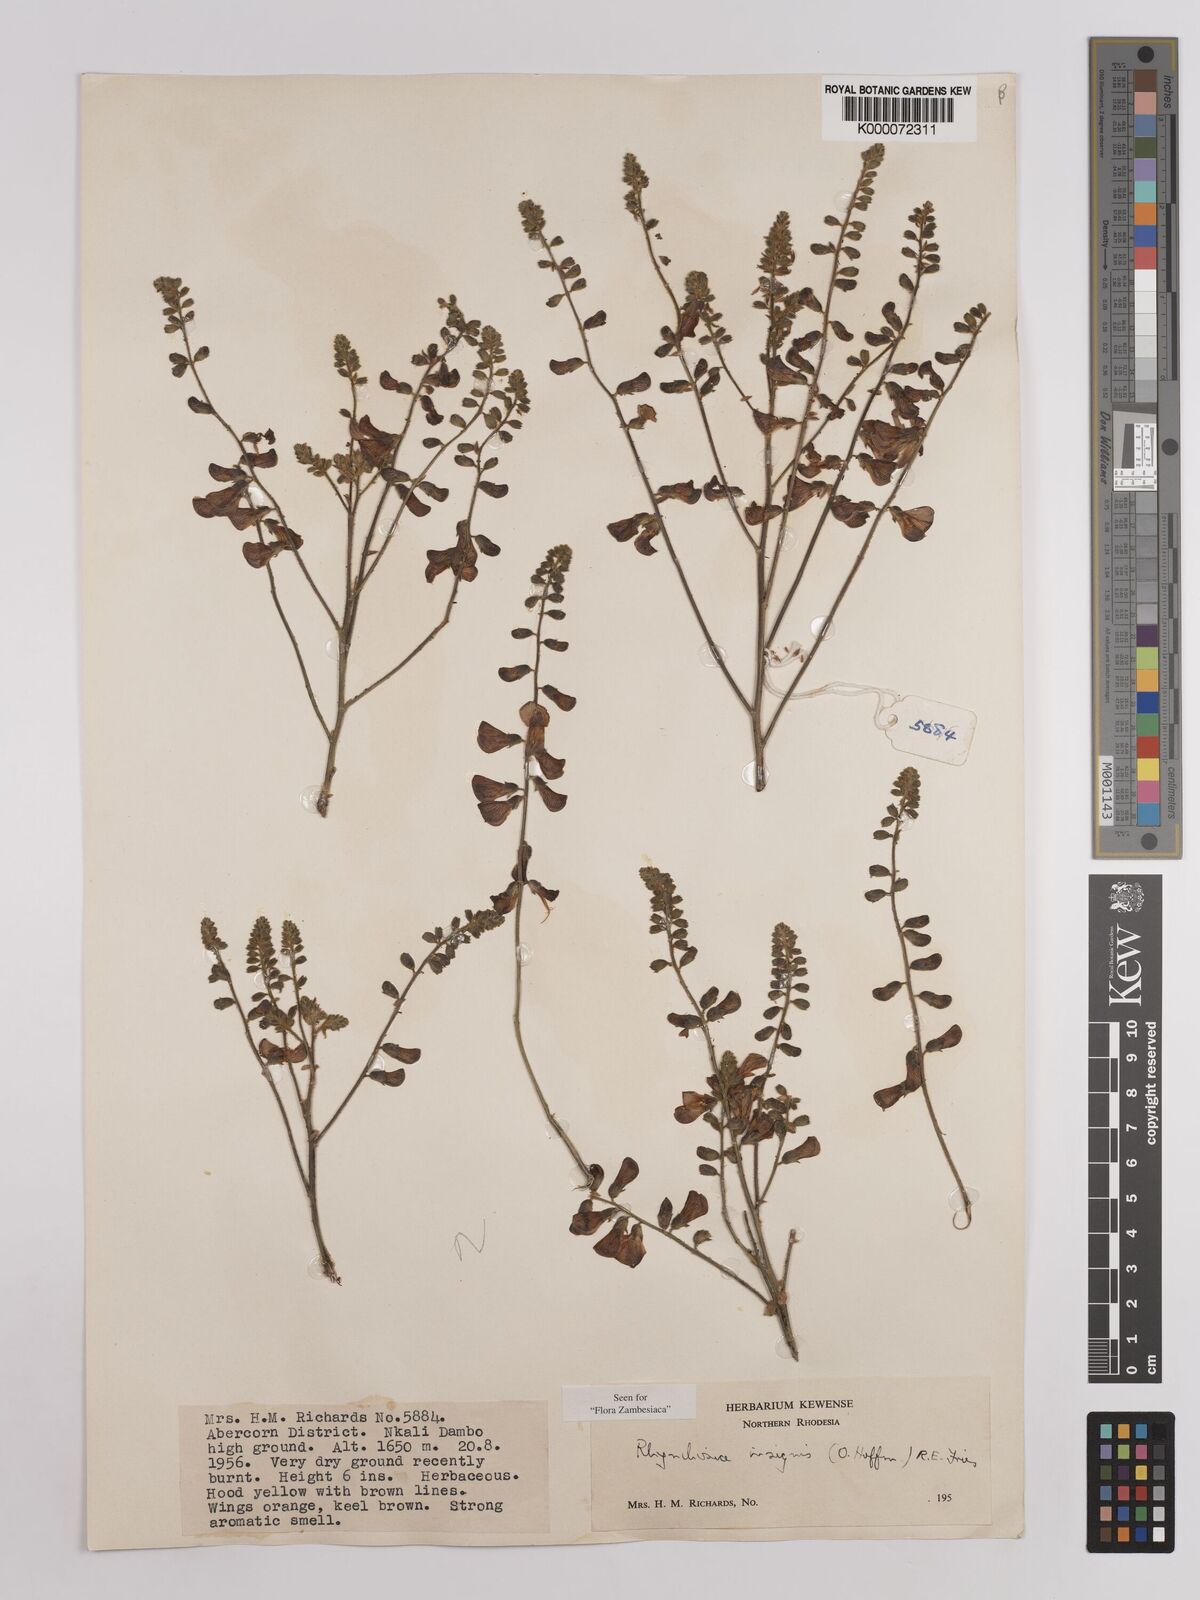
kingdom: Plantae
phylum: Tracheophyta
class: Magnoliopsida
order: Fabales
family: Fabaceae
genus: Rhynchosia
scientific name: Rhynchosia insignis
